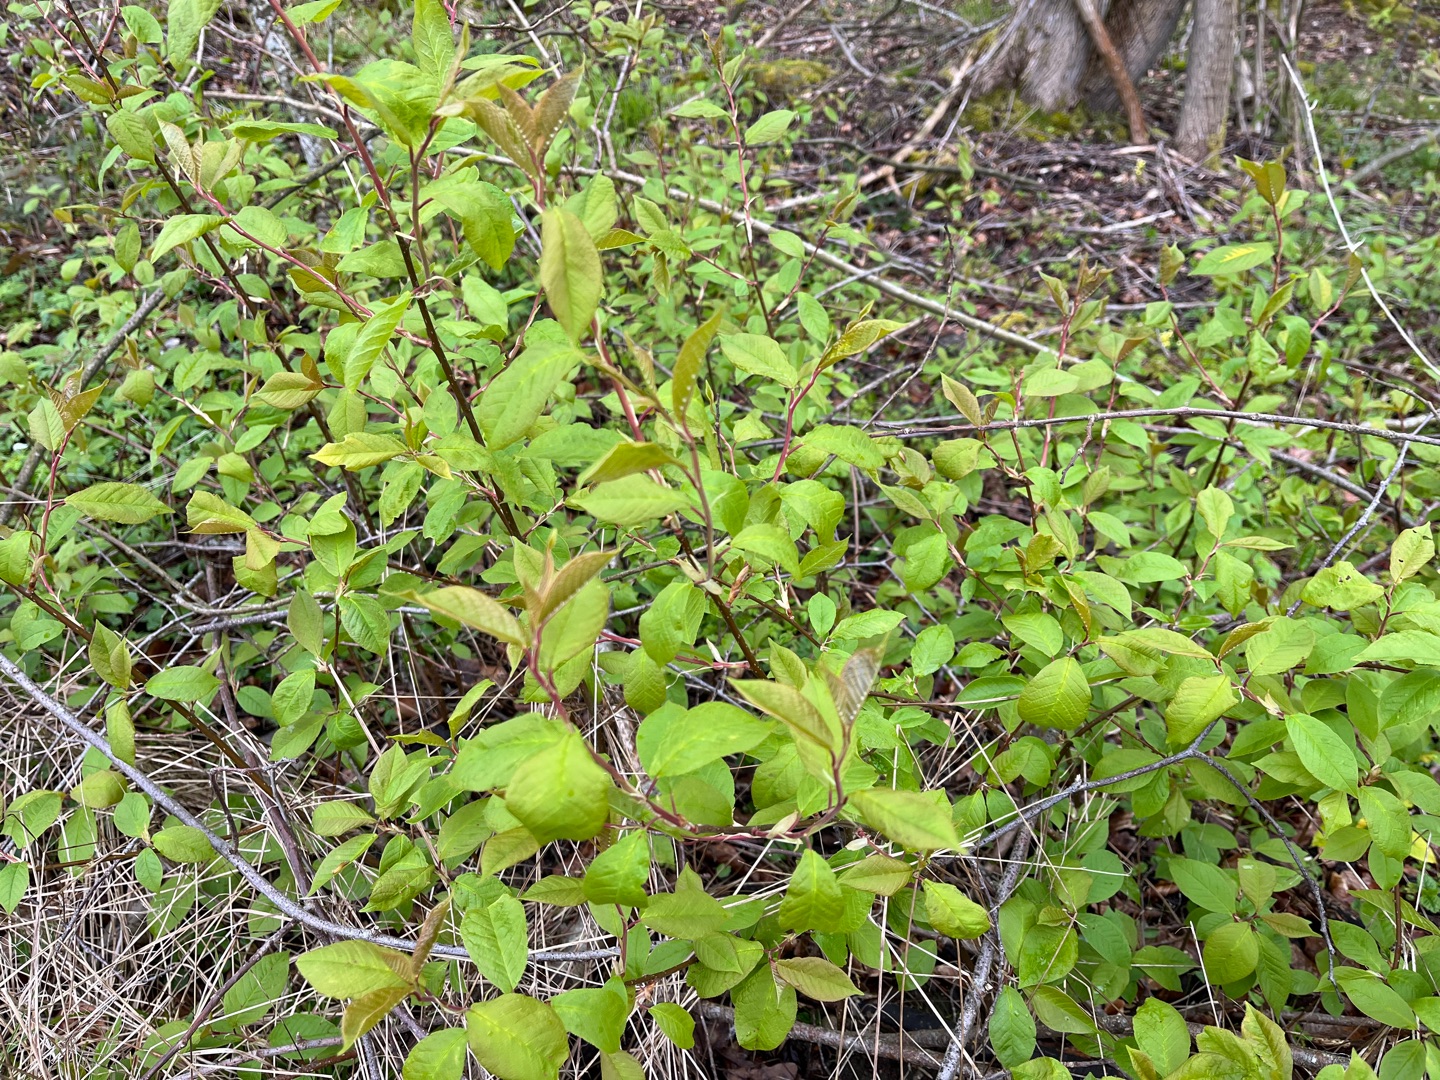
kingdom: Plantae
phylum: Tracheophyta
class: Magnoliopsida
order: Rosales
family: Rosaceae
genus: Prunus
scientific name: Prunus padus
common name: Almindelig hæg
